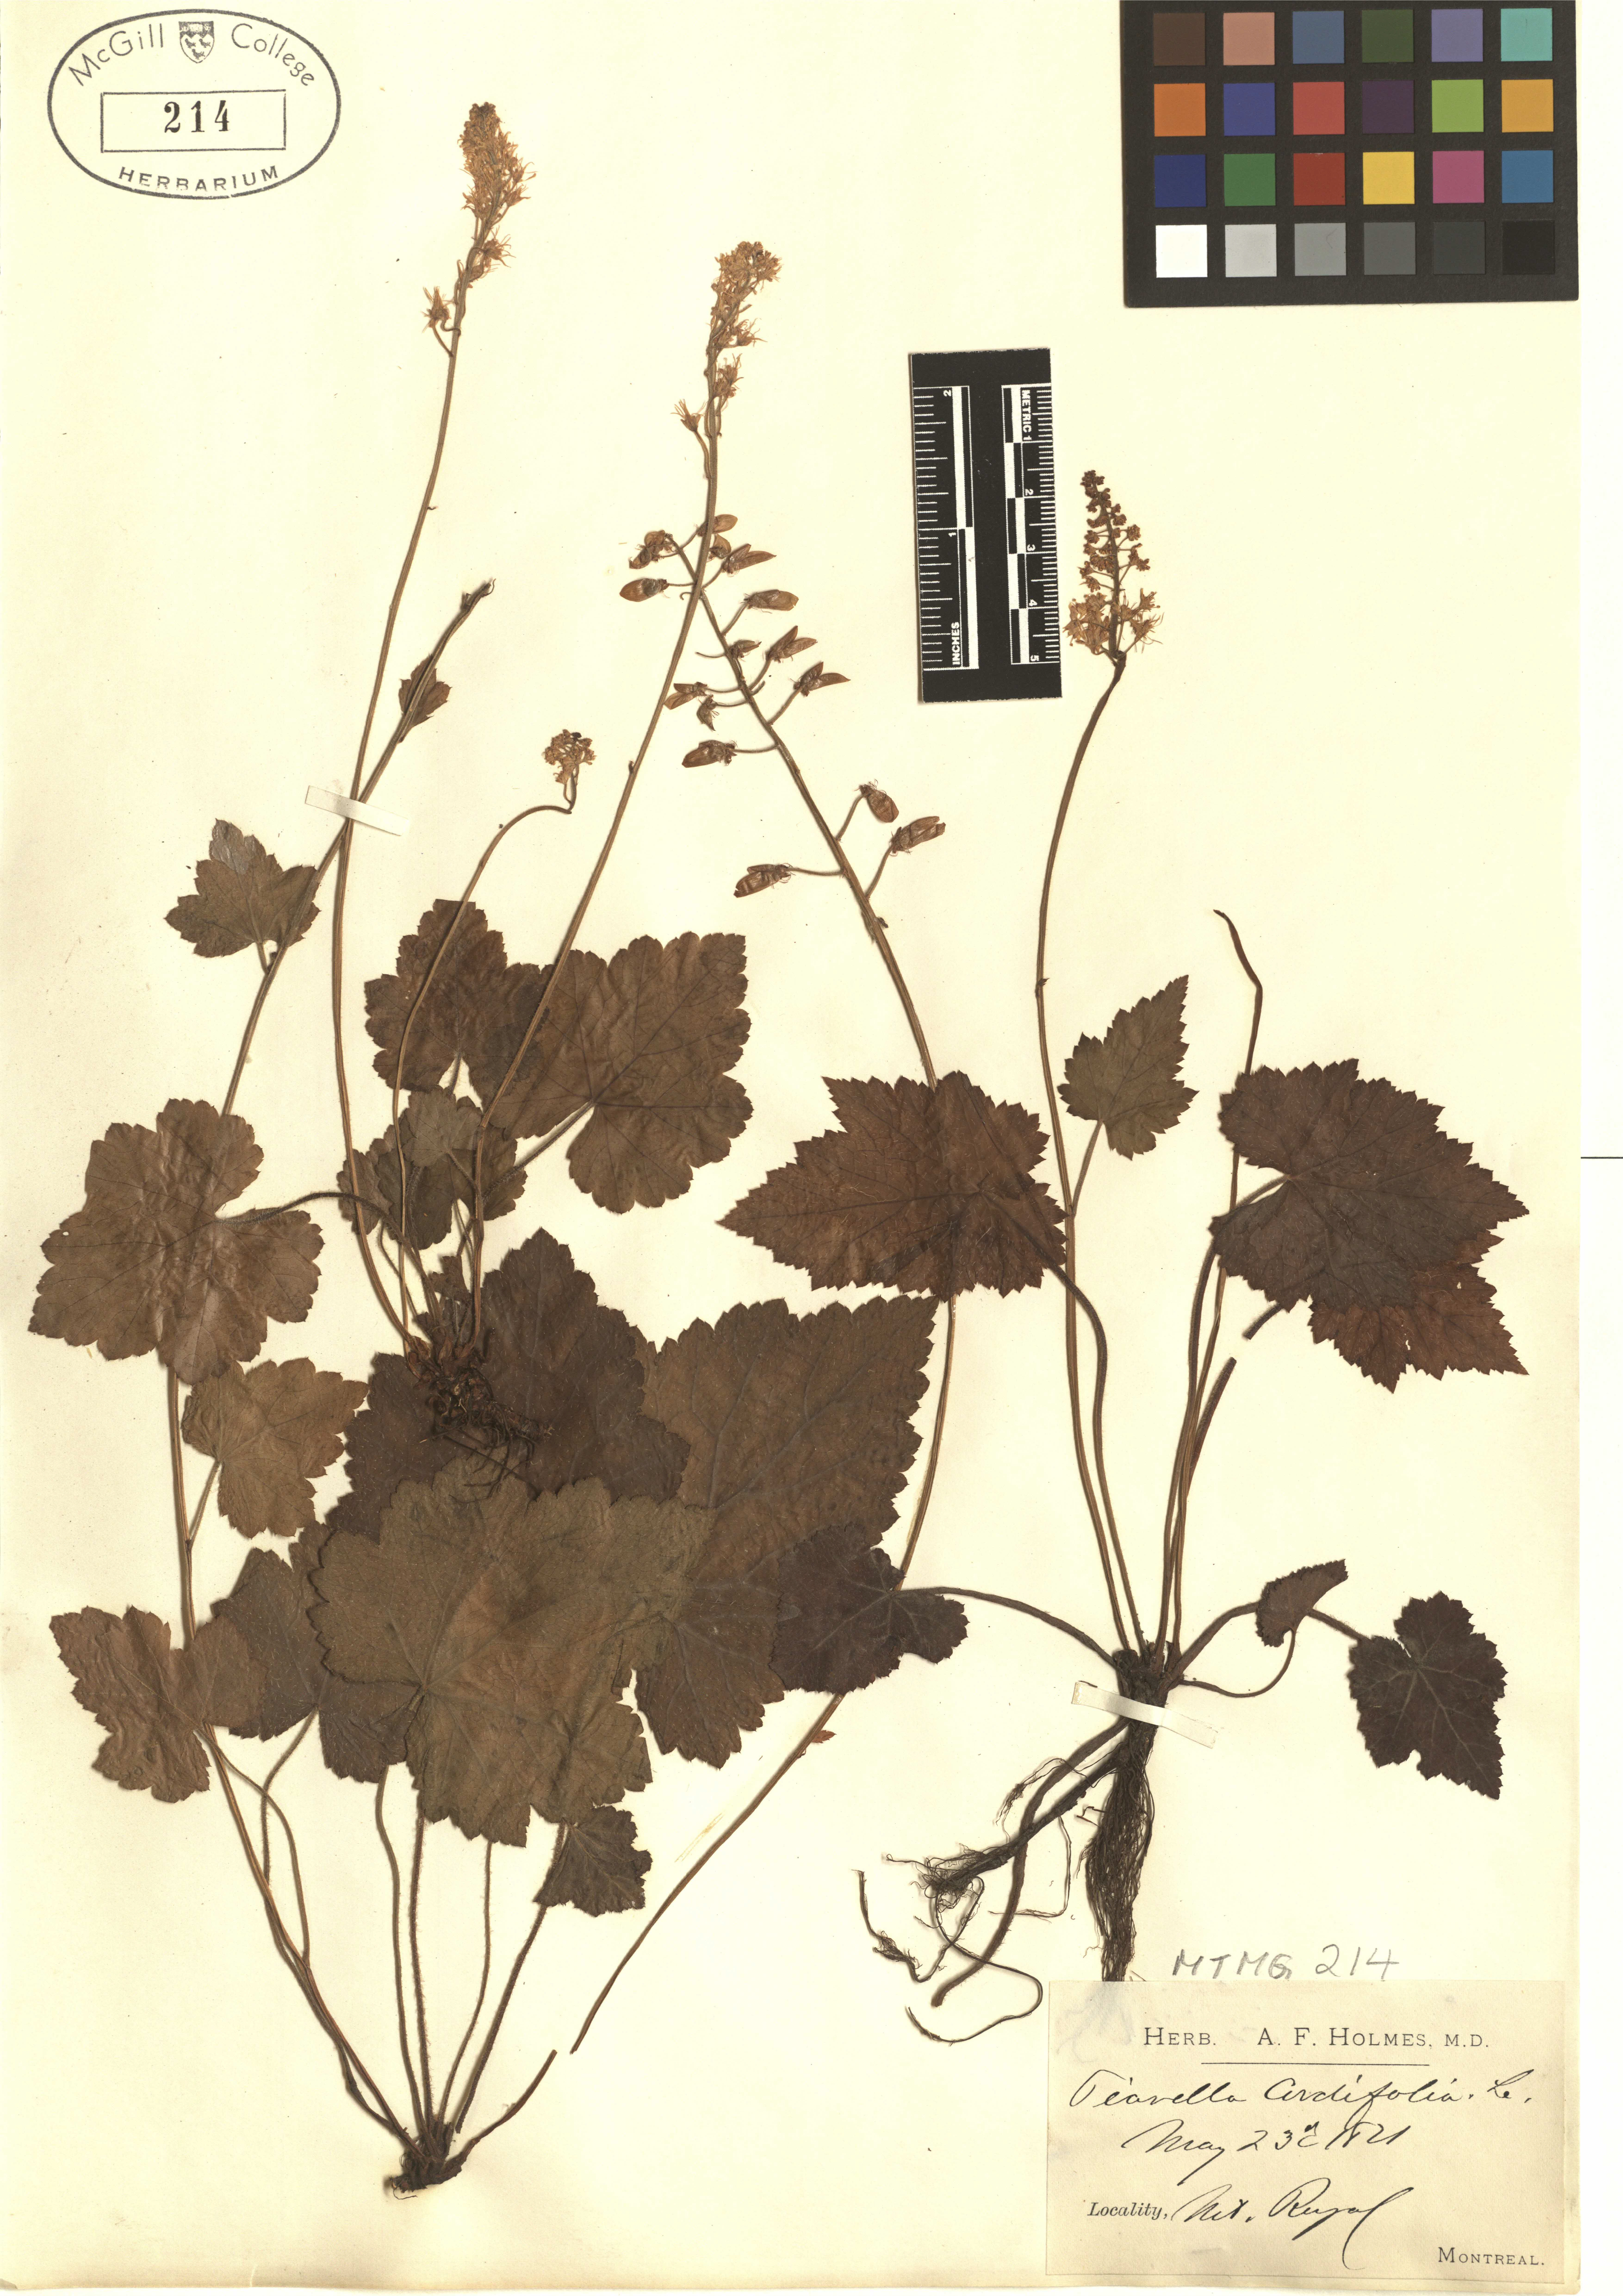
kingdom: Plantae
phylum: Tracheophyta
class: Magnoliopsida
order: Saxifragales
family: Saxifragaceae
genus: Tiarella
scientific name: Tiarella cordifolia
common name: Foamflower
